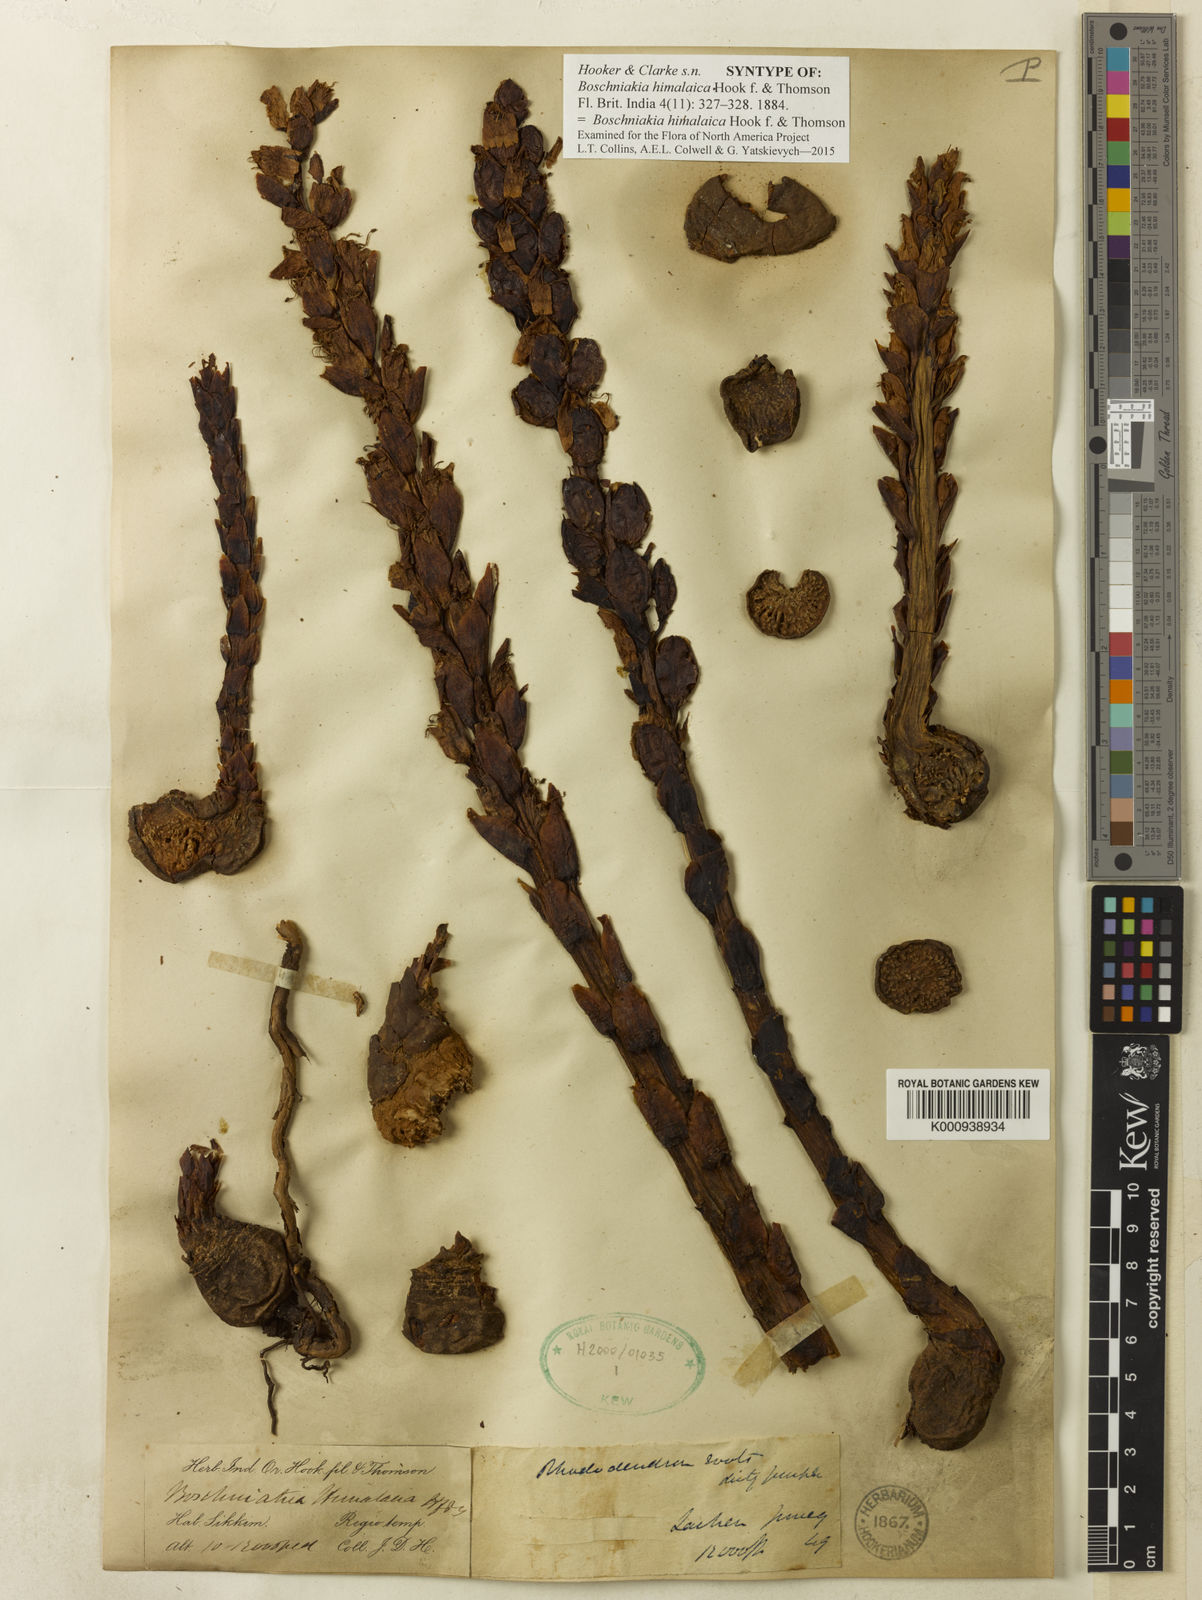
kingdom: Plantae
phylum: Tracheophyta
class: Magnoliopsida
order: Lamiales
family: Orobanchaceae
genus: Boschniakia
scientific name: Boschniakia himalaica
